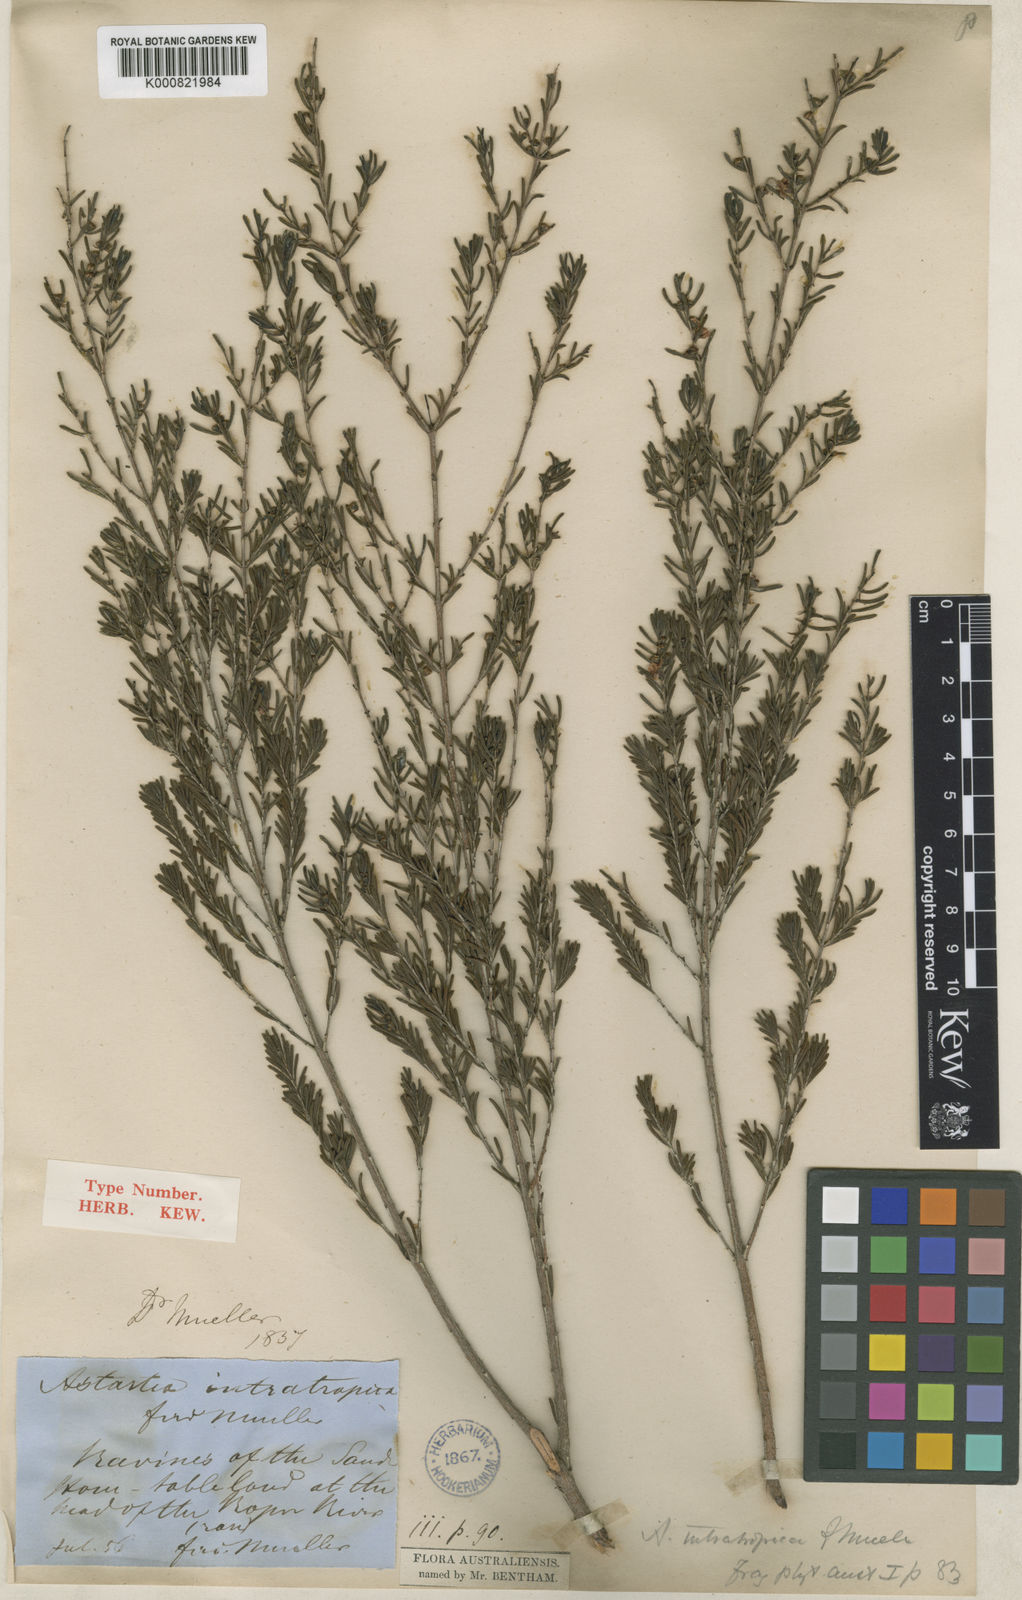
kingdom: Plantae
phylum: Tracheophyta
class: Magnoliopsida
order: Myrtales
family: Myrtaceae
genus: Seorsus
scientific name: Seorsus intratropicus
